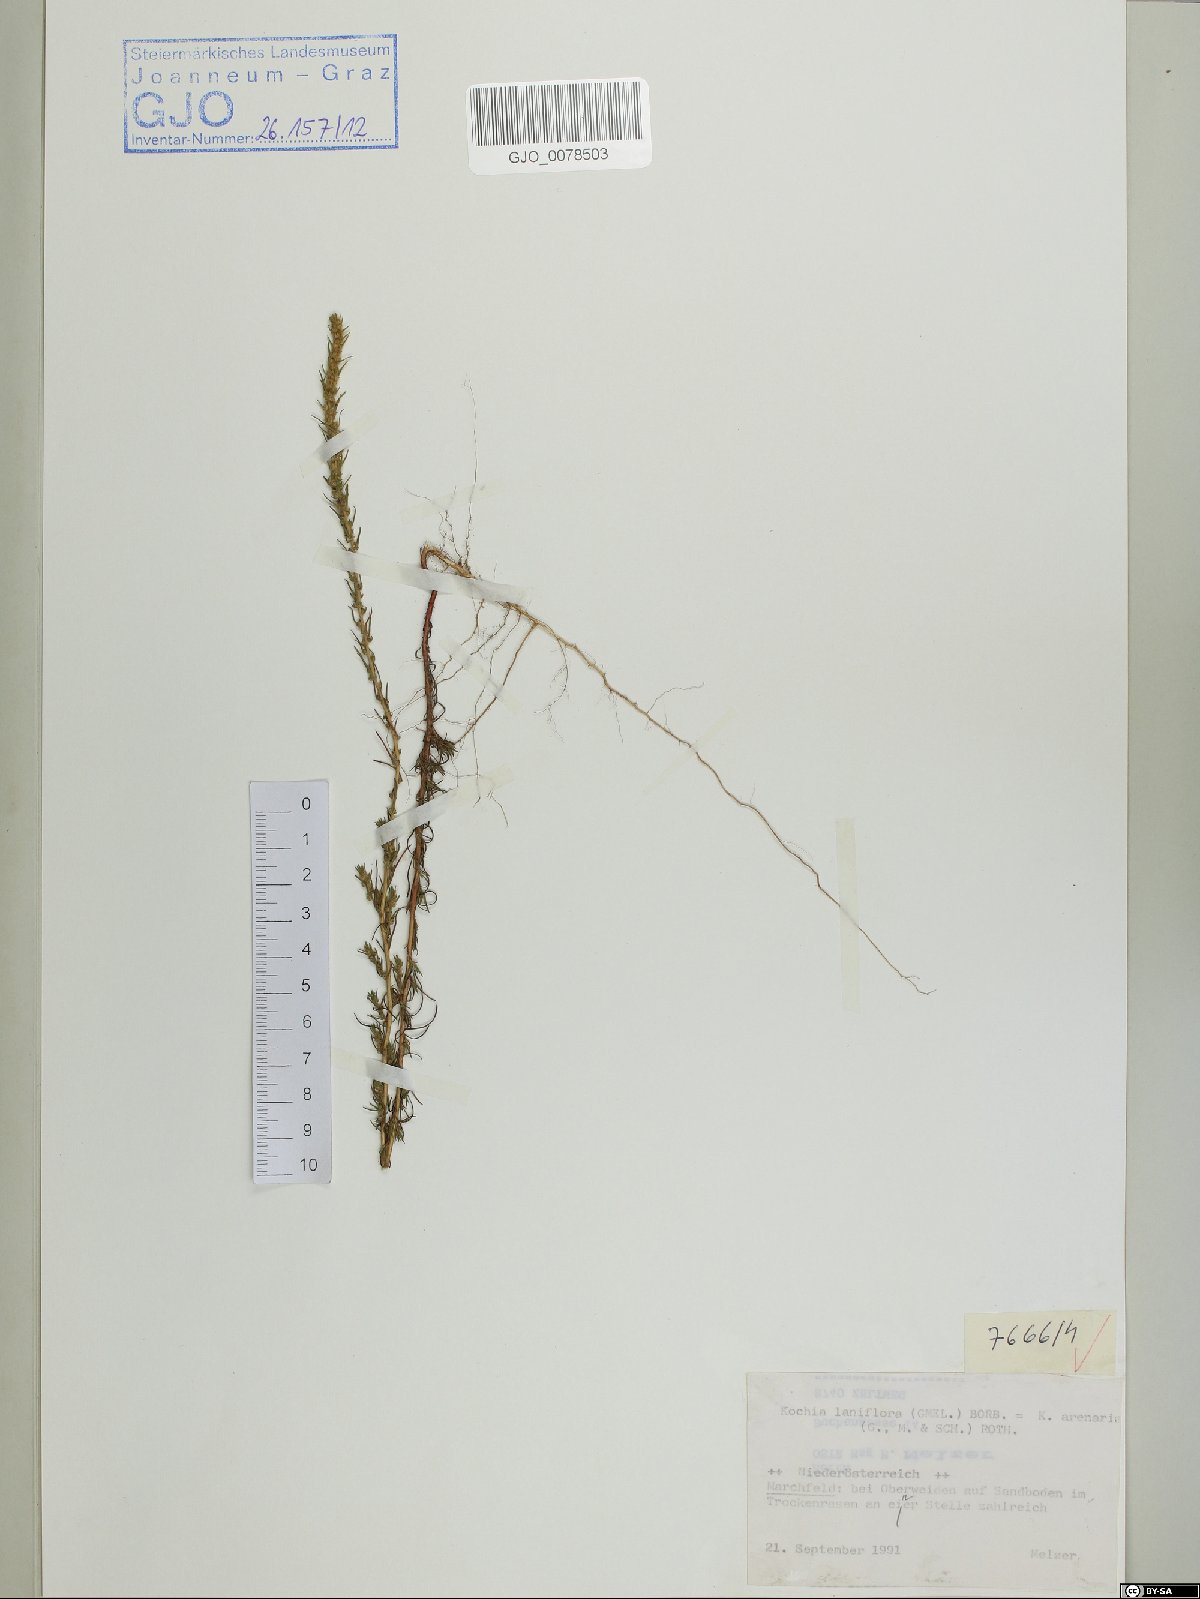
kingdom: Plantae
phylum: Tracheophyta
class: Magnoliopsida
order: Caryophyllales
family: Amaranthaceae
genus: Bassia
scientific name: Bassia laniflora
